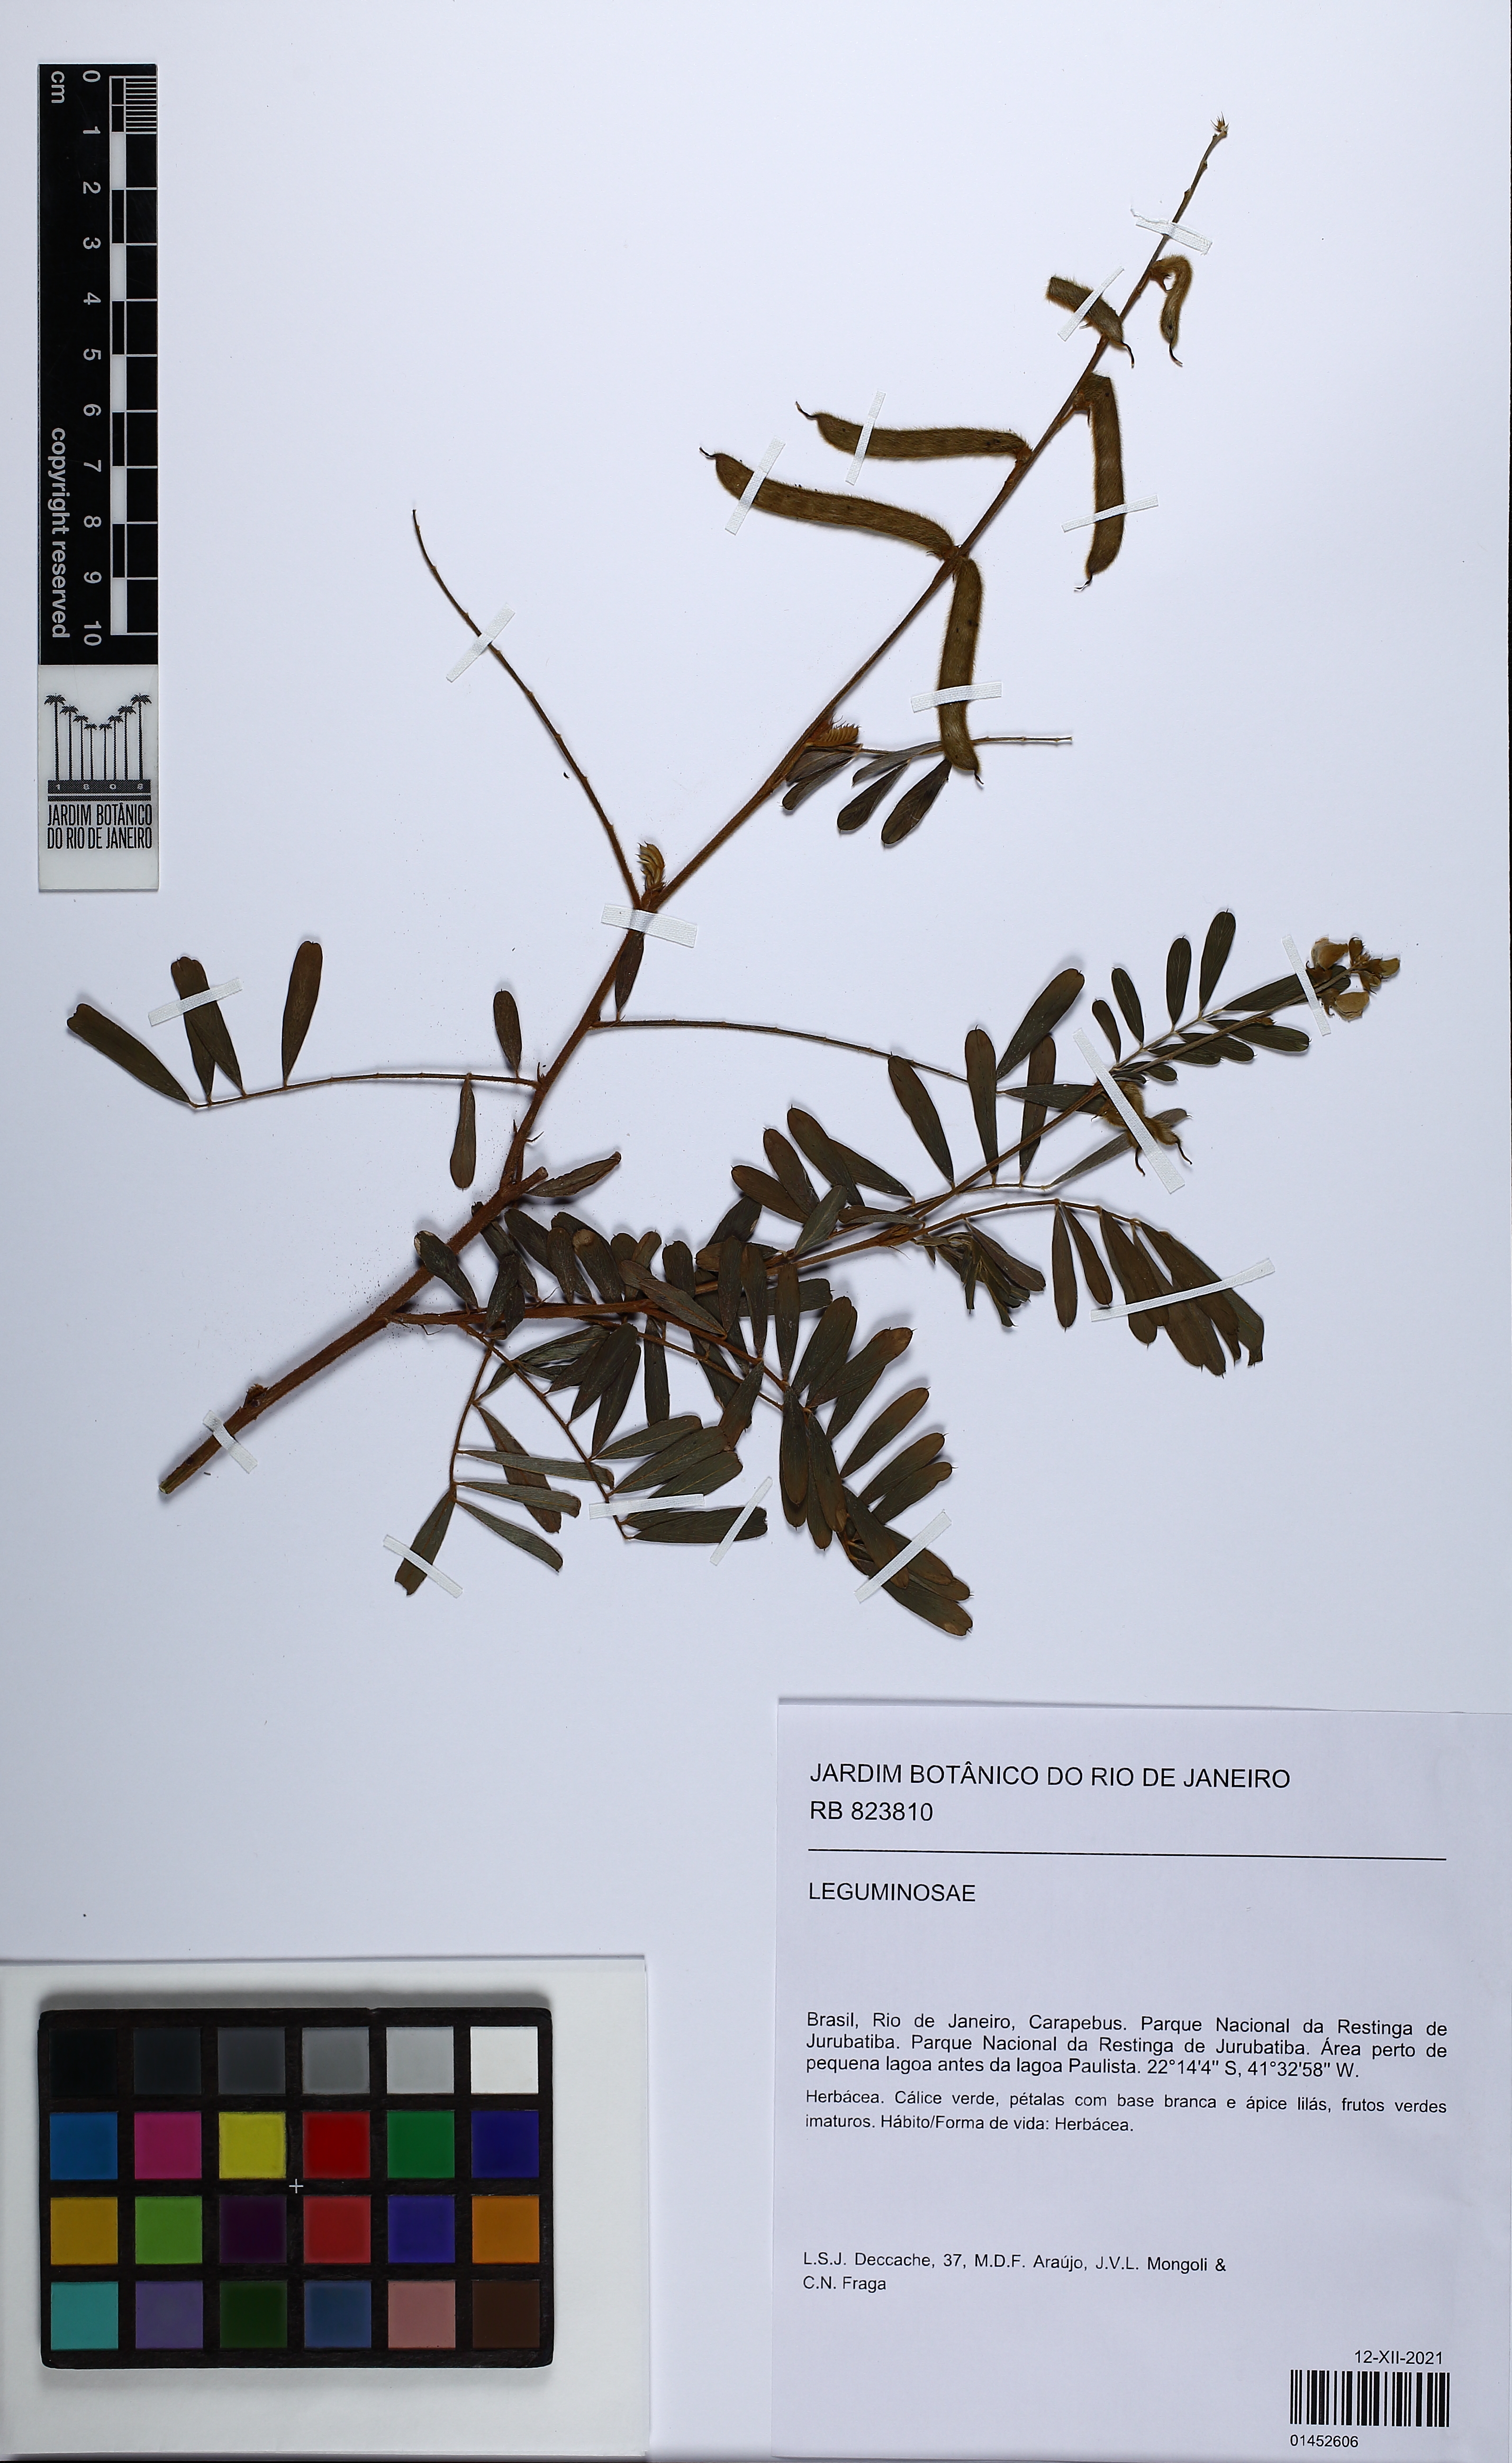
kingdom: Plantae
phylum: Tracheophyta
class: Magnoliopsida
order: Fabales
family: Fabaceae
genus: Tephrosia
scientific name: Tephrosia
